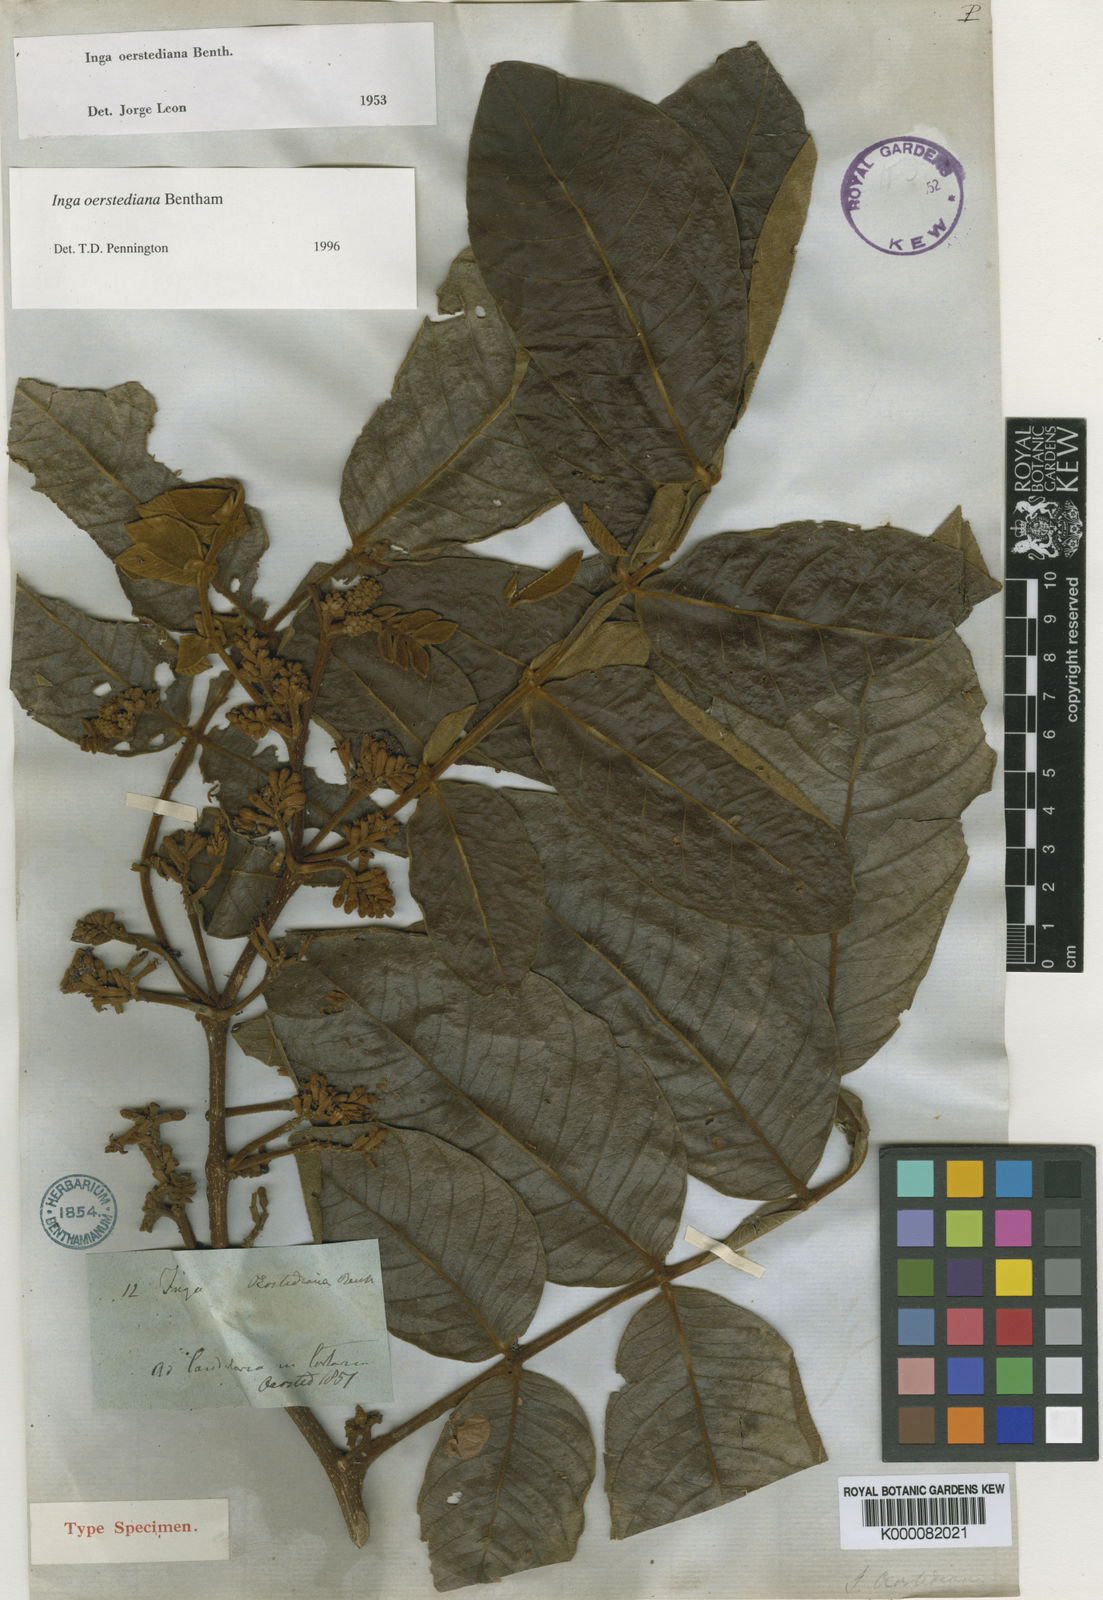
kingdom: Plantae
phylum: Tracheophyta
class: Magnoliopsida
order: Fabales
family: Fabaceae
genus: Inga
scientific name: Inga
